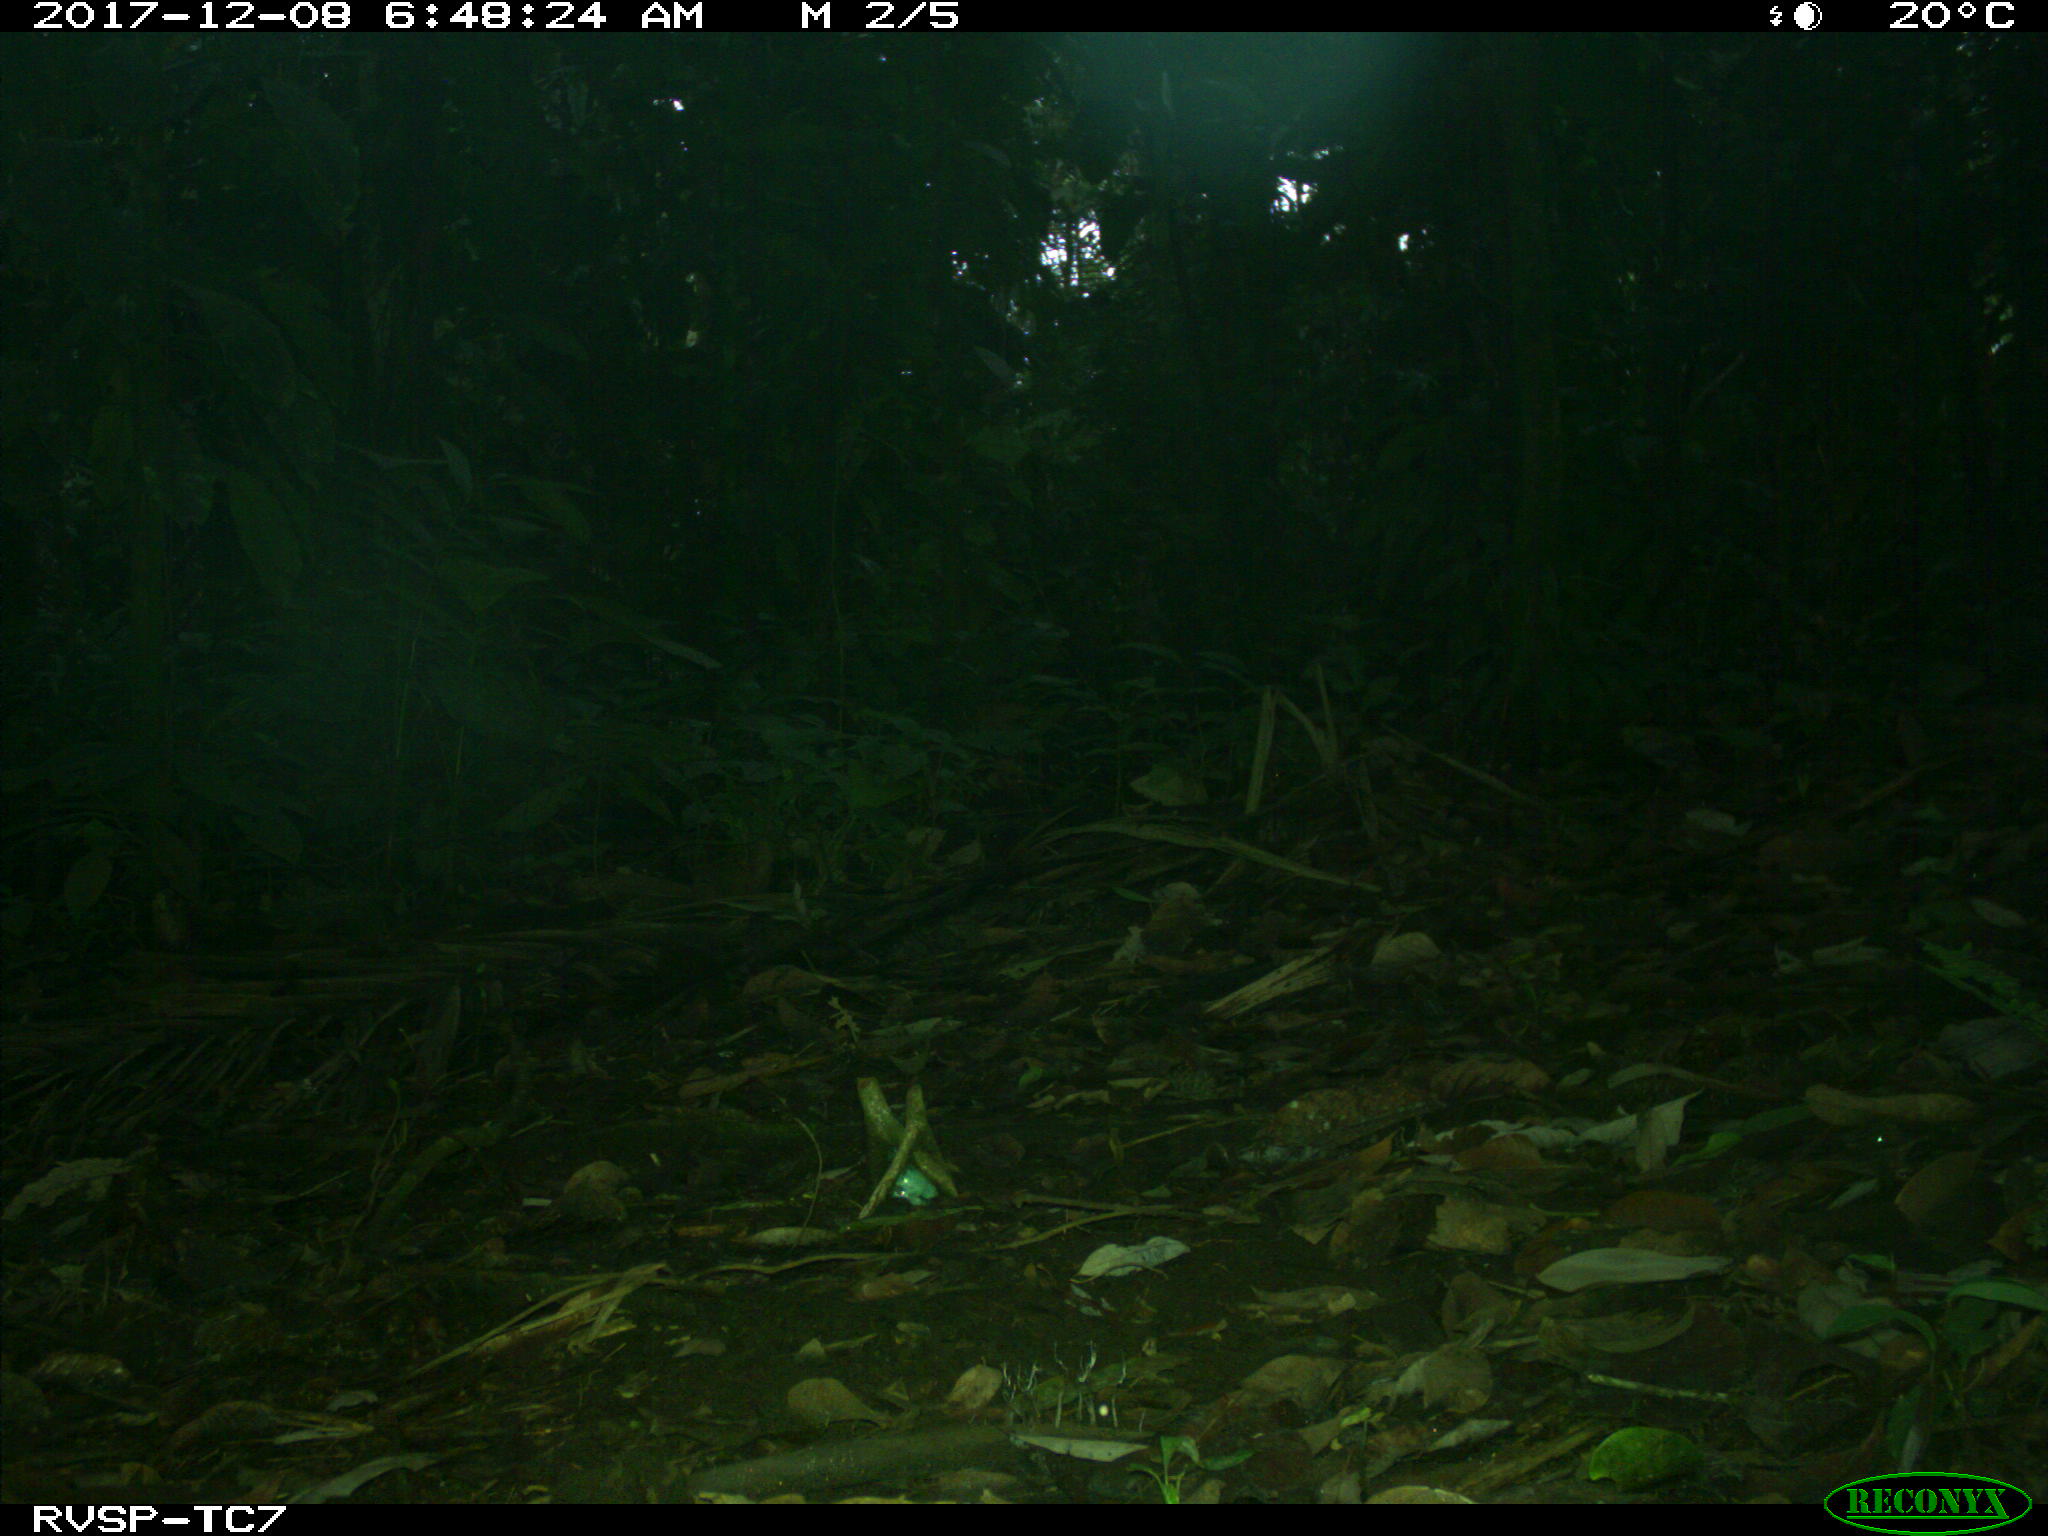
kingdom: Animalia
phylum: Chordata
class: Mammalia
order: Artiodactyla
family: Tayassuidae
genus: Tayassu
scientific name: Tayassu pecari
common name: White-lipped peccary
